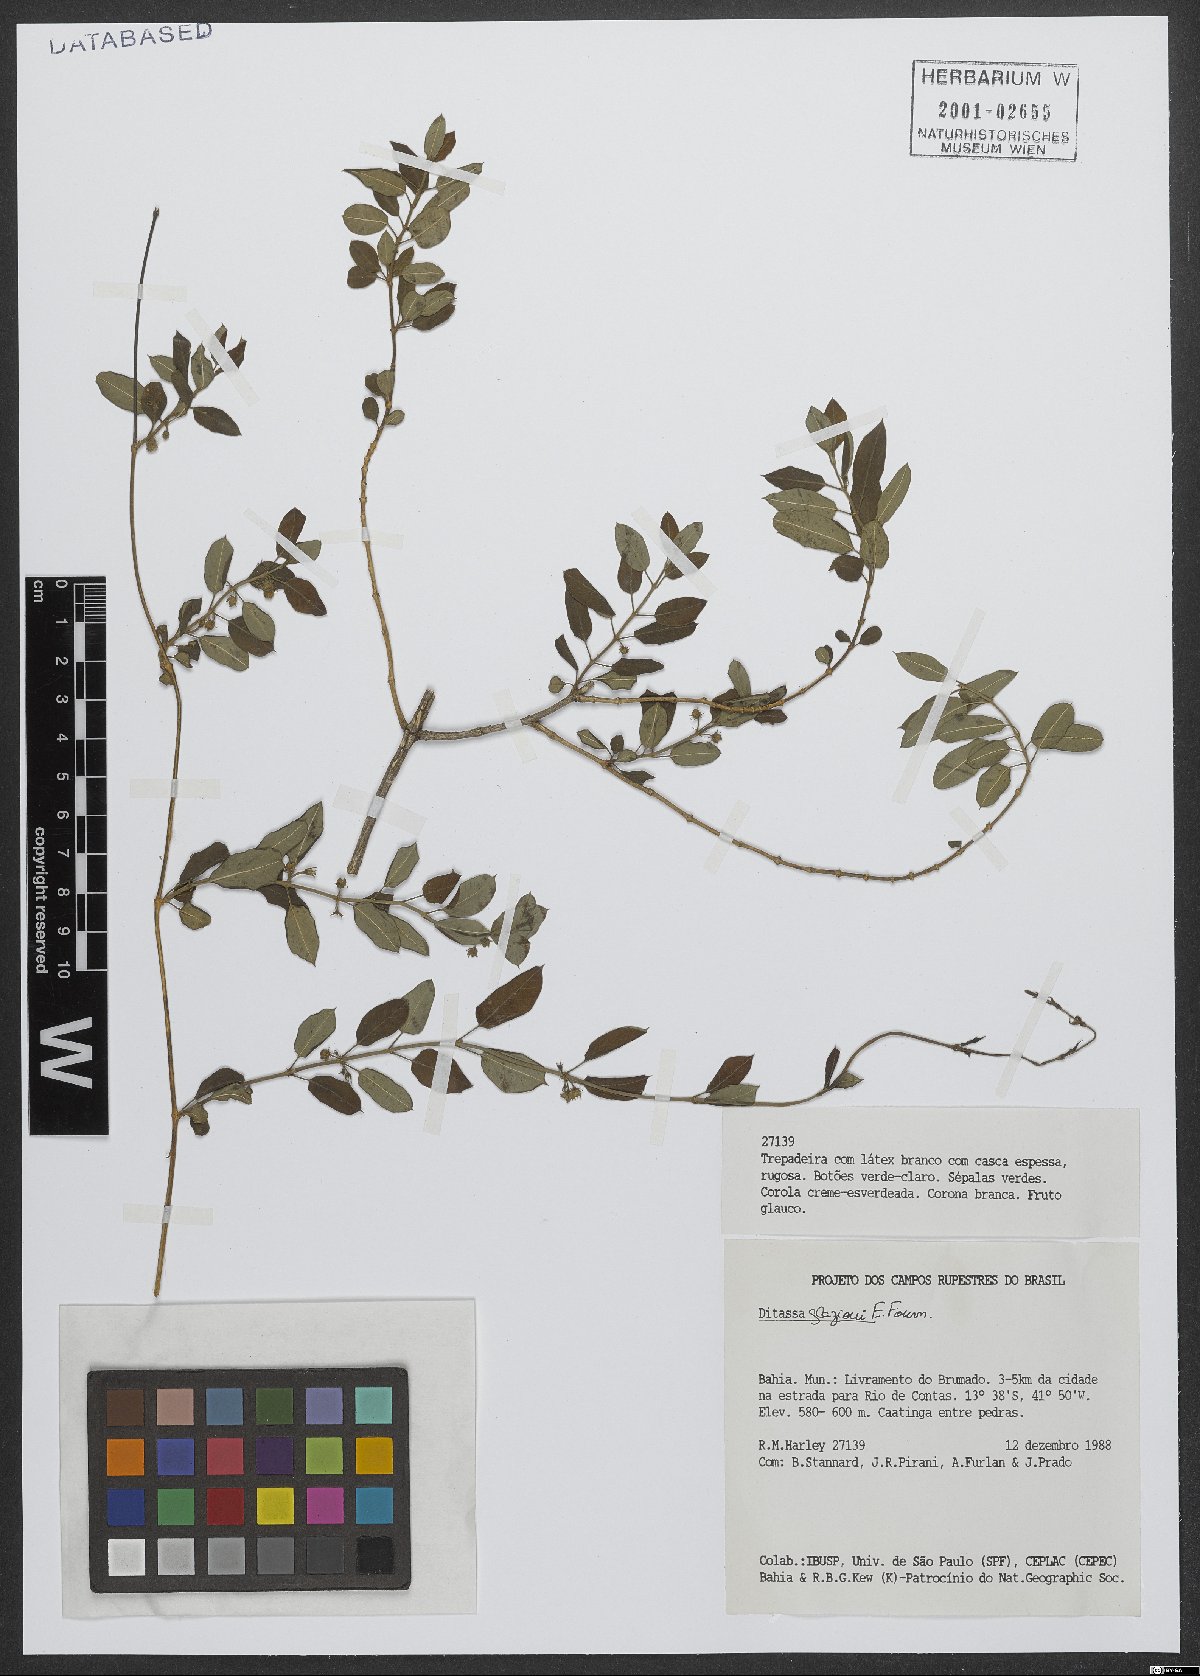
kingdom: Plantae
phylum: Tracheophyta
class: Magnoliopsida
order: Gentianales
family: Apocynaceae
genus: Ditassa
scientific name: Ditassa glaziovi
